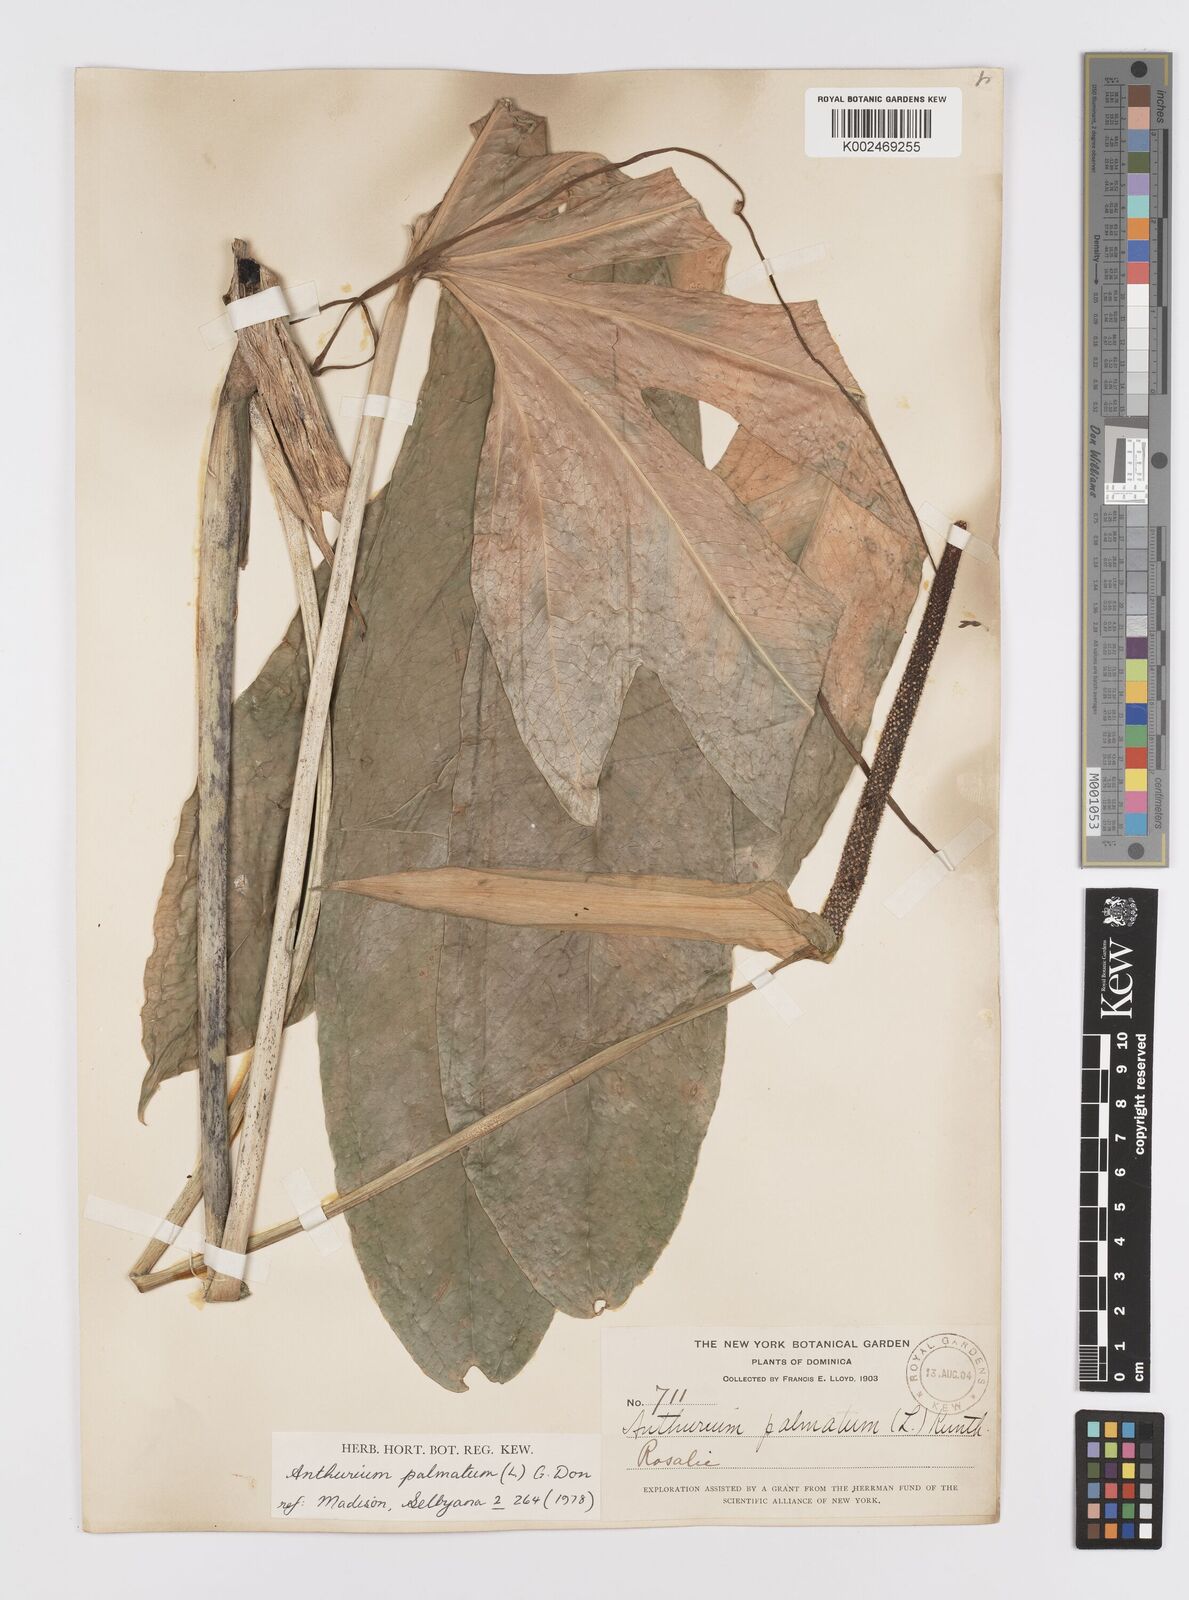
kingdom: Plantae
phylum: Tracheophyta
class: Liliopsida
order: Alismatales
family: Araceae
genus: Anthurium
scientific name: Anthurium palmatum
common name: Mibi
